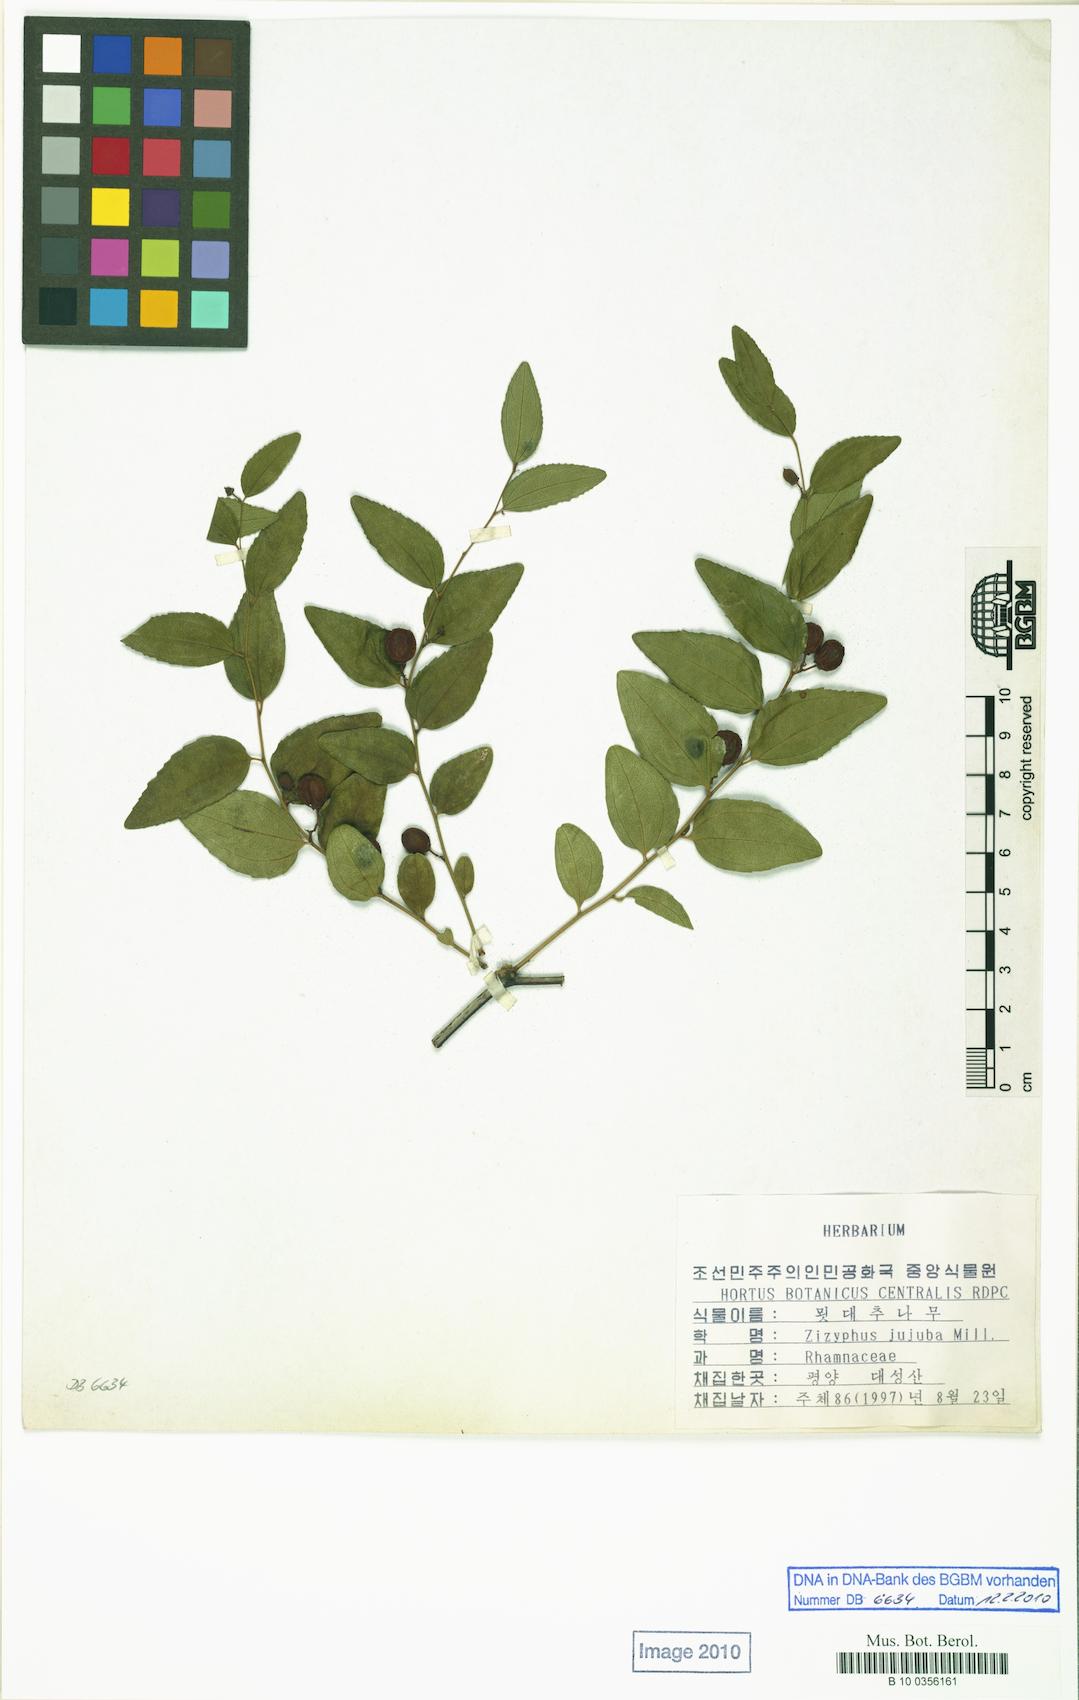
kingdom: Plantae
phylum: Tracheophyta
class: Magnoliopsida
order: Rosales
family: Rhamnaceae
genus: Ziziphus
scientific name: Ziziphus jujuba
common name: Jujube red date
